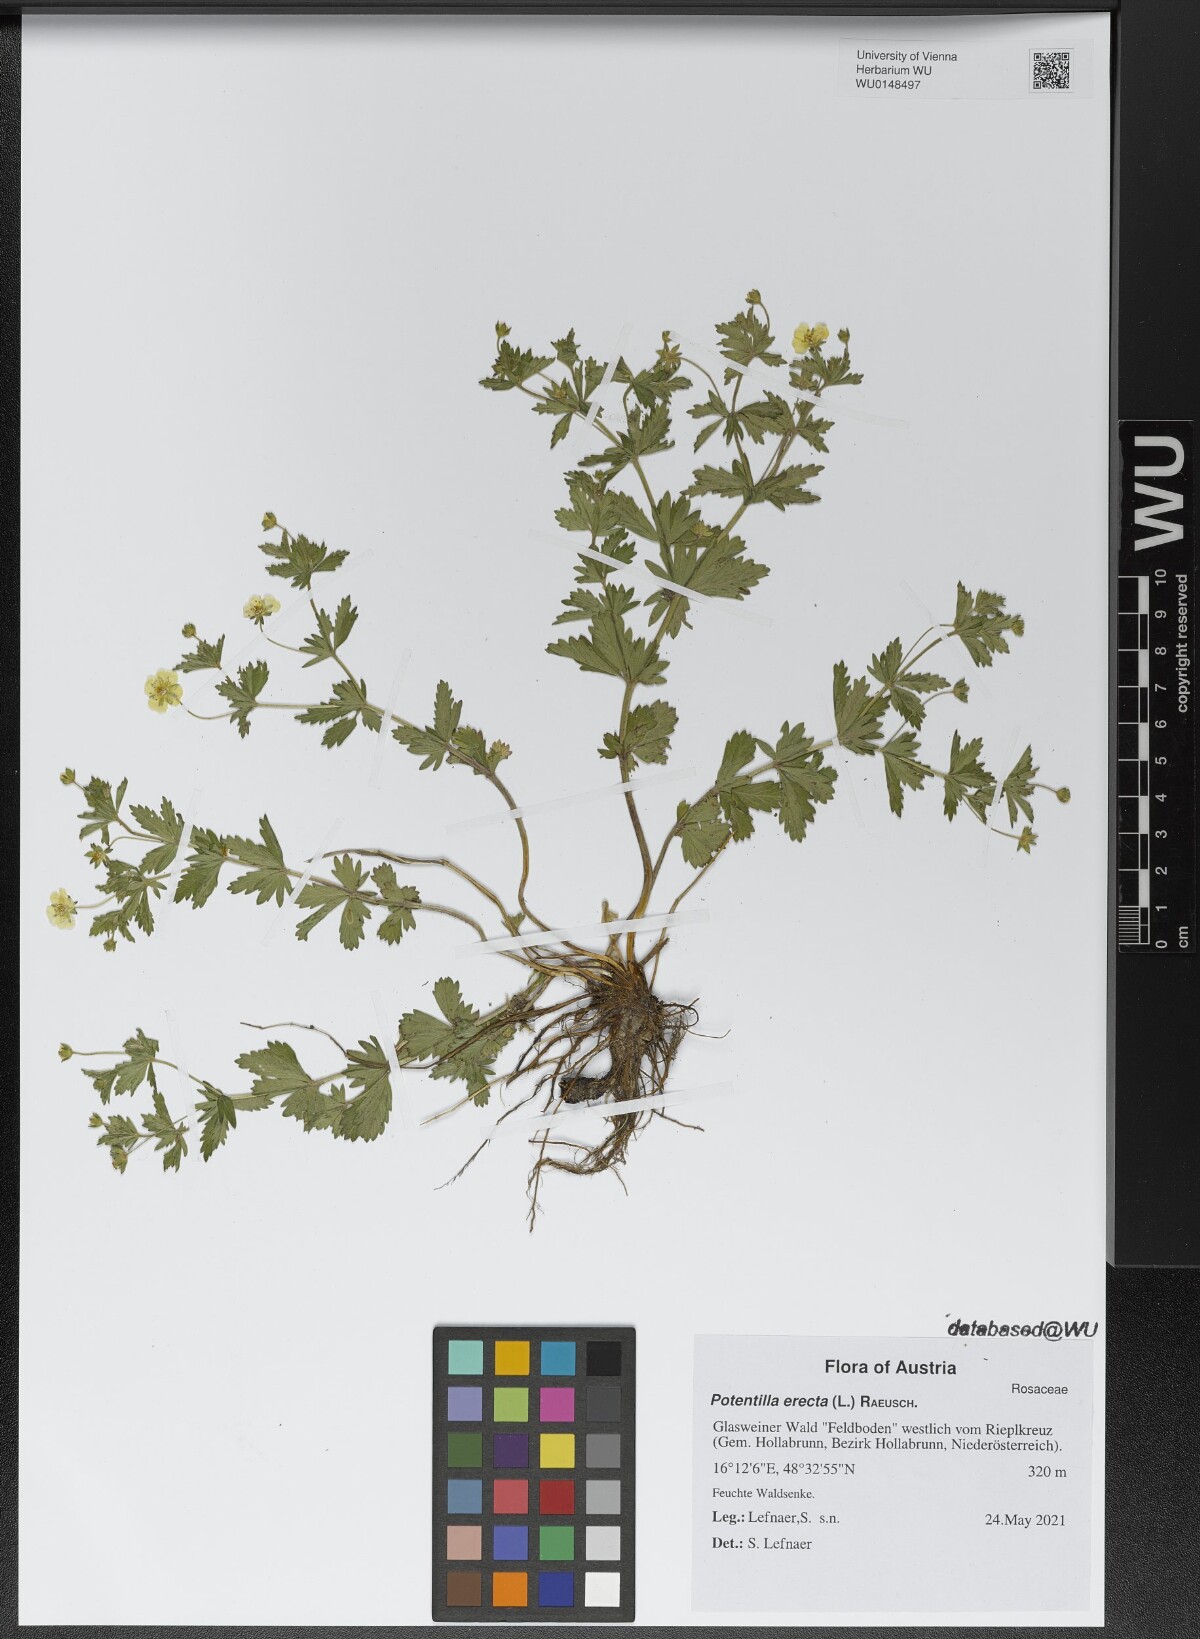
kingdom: Plantae
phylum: Tracheophyta
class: Magnoliopsida
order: Rosales
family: Rosaceae
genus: Potentilla
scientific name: Potentilla erecta
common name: Tormentil
